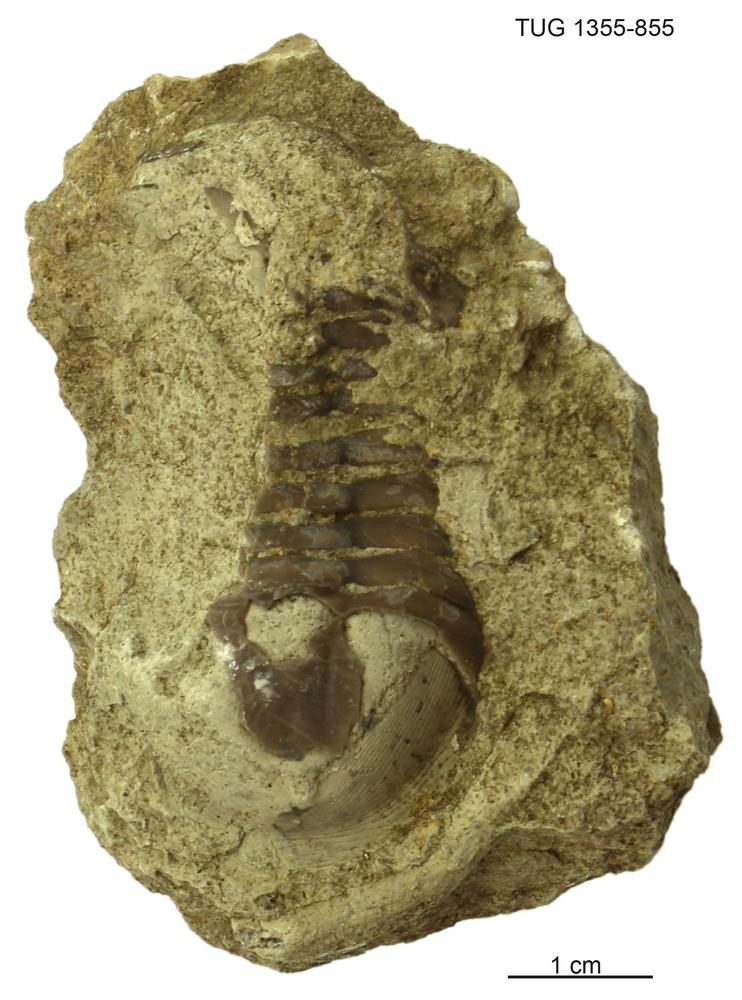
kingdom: Animalia
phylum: Arthropoda
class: Trilobita
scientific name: Trilobita
